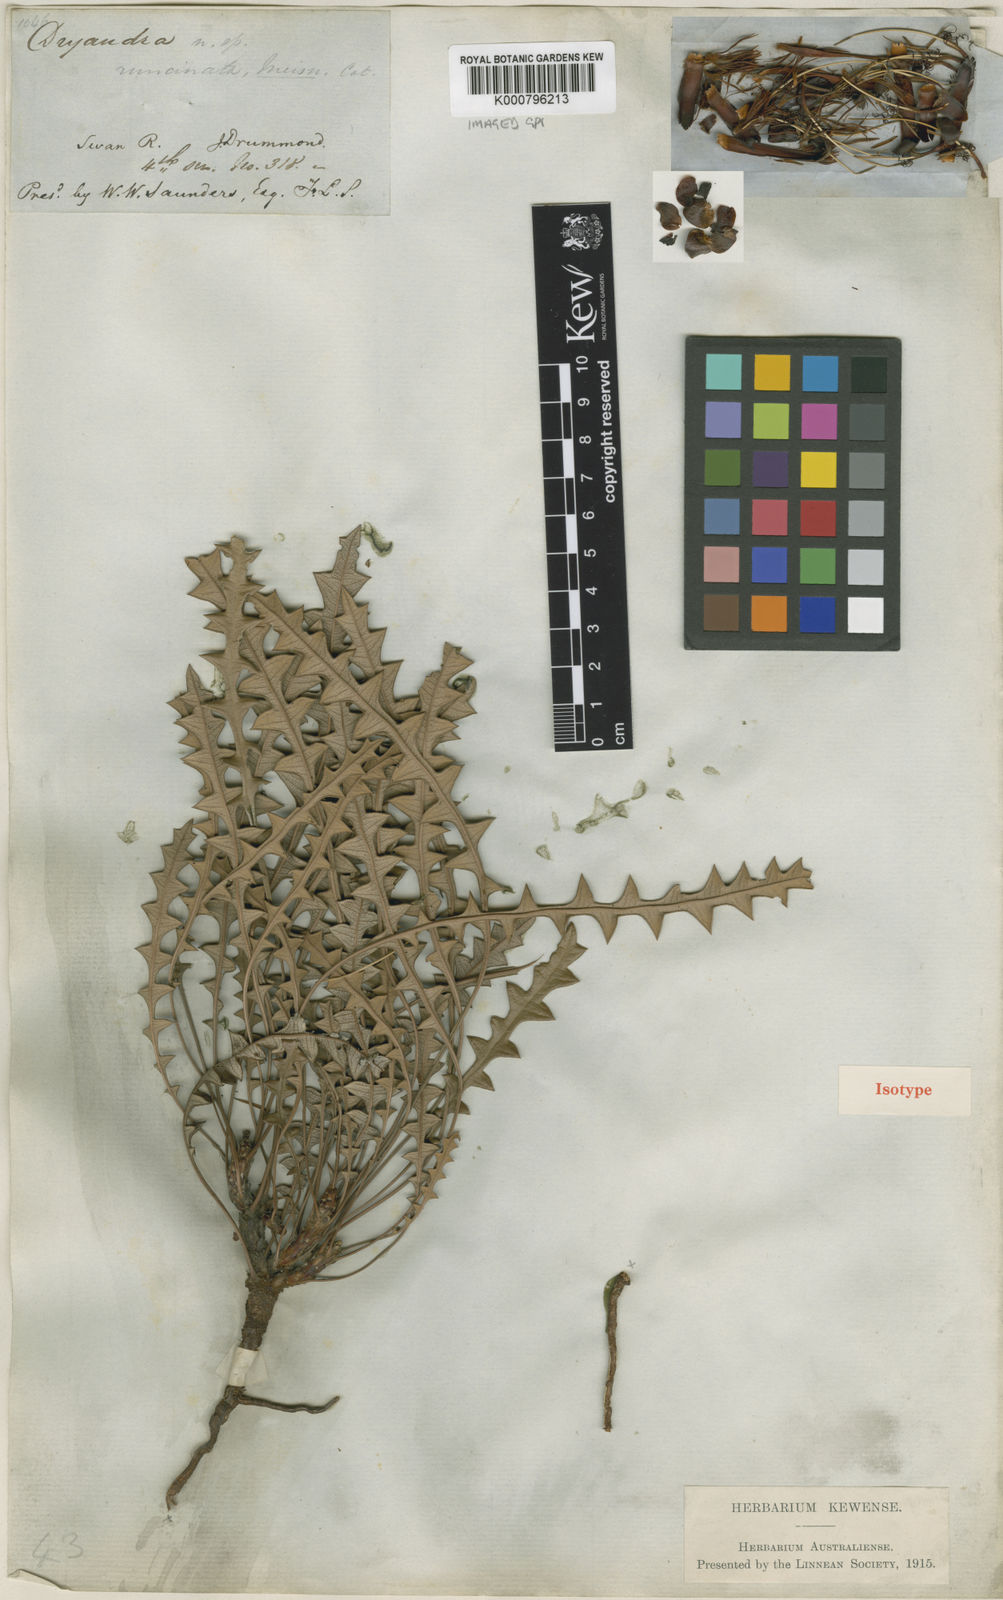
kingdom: Plantae
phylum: Tracheophyta
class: Magnoliopsida
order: Proteales
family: Proteaceae
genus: Banksia
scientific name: Banksia rufa
